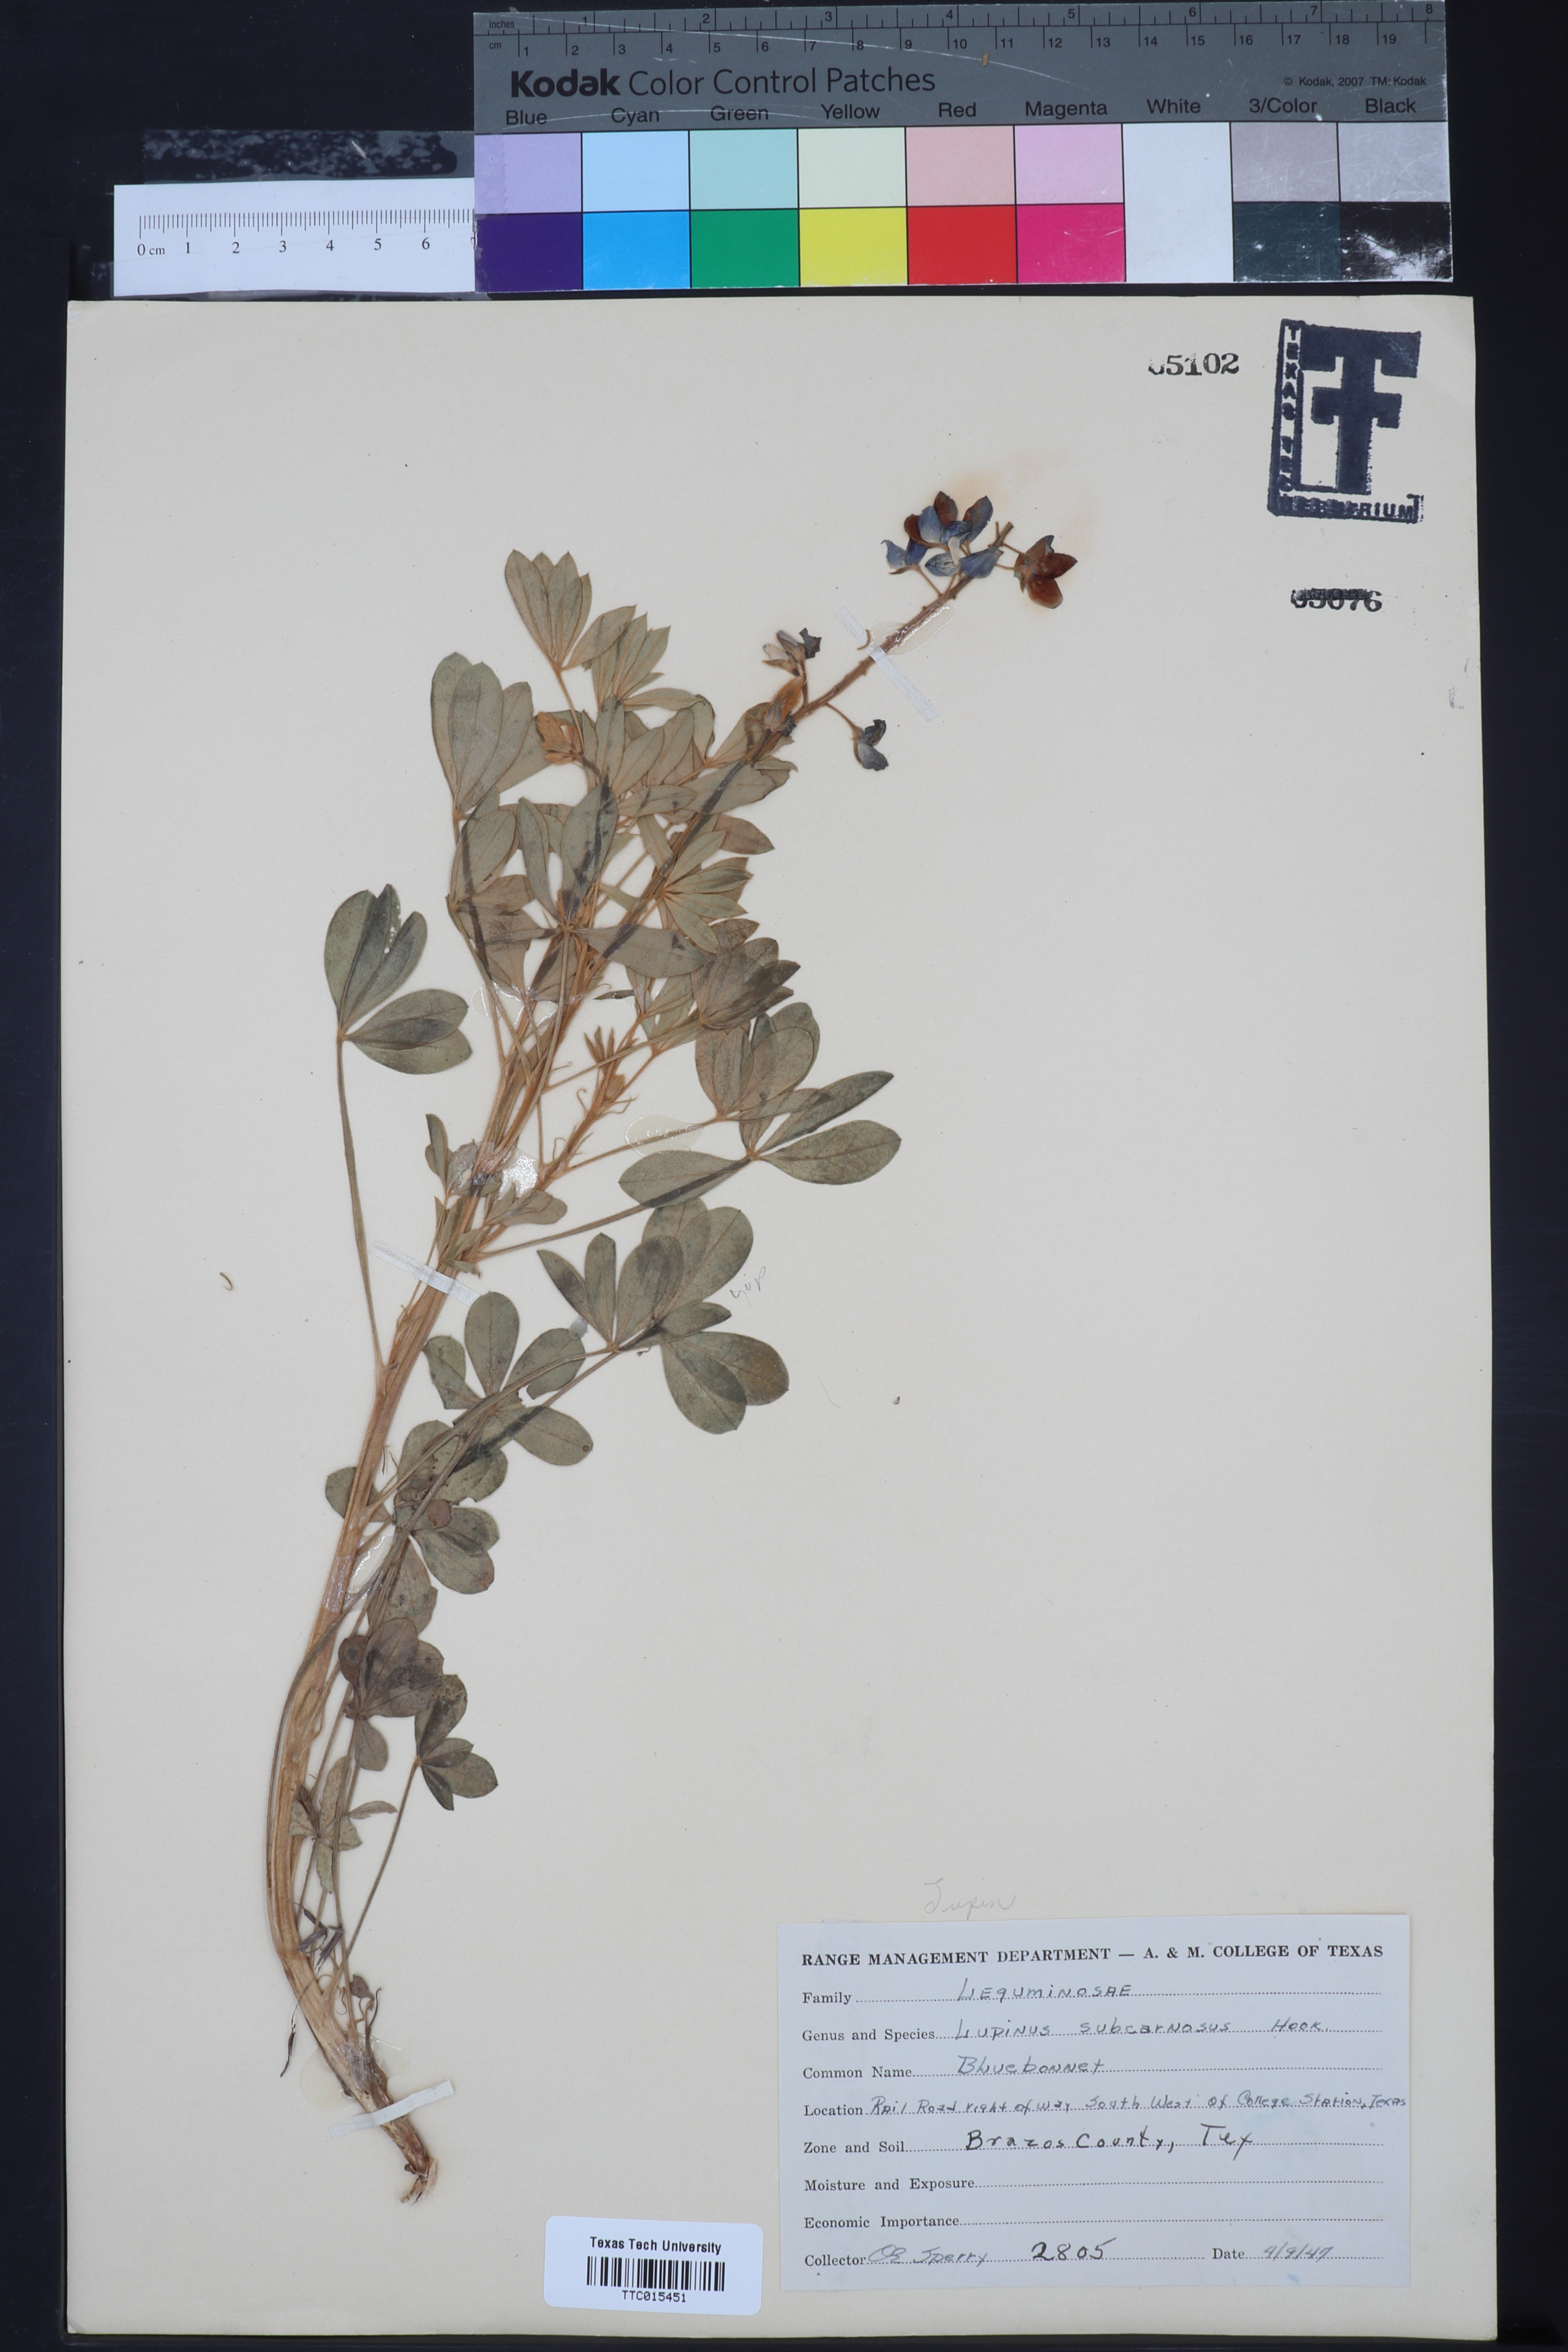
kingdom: Plantae
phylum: Tracheophyta
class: Magnoliopsida
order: Fabales
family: Fabaceae
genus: Lupinus
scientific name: Lupinus subcarnosus
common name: Texas bluebonnet
